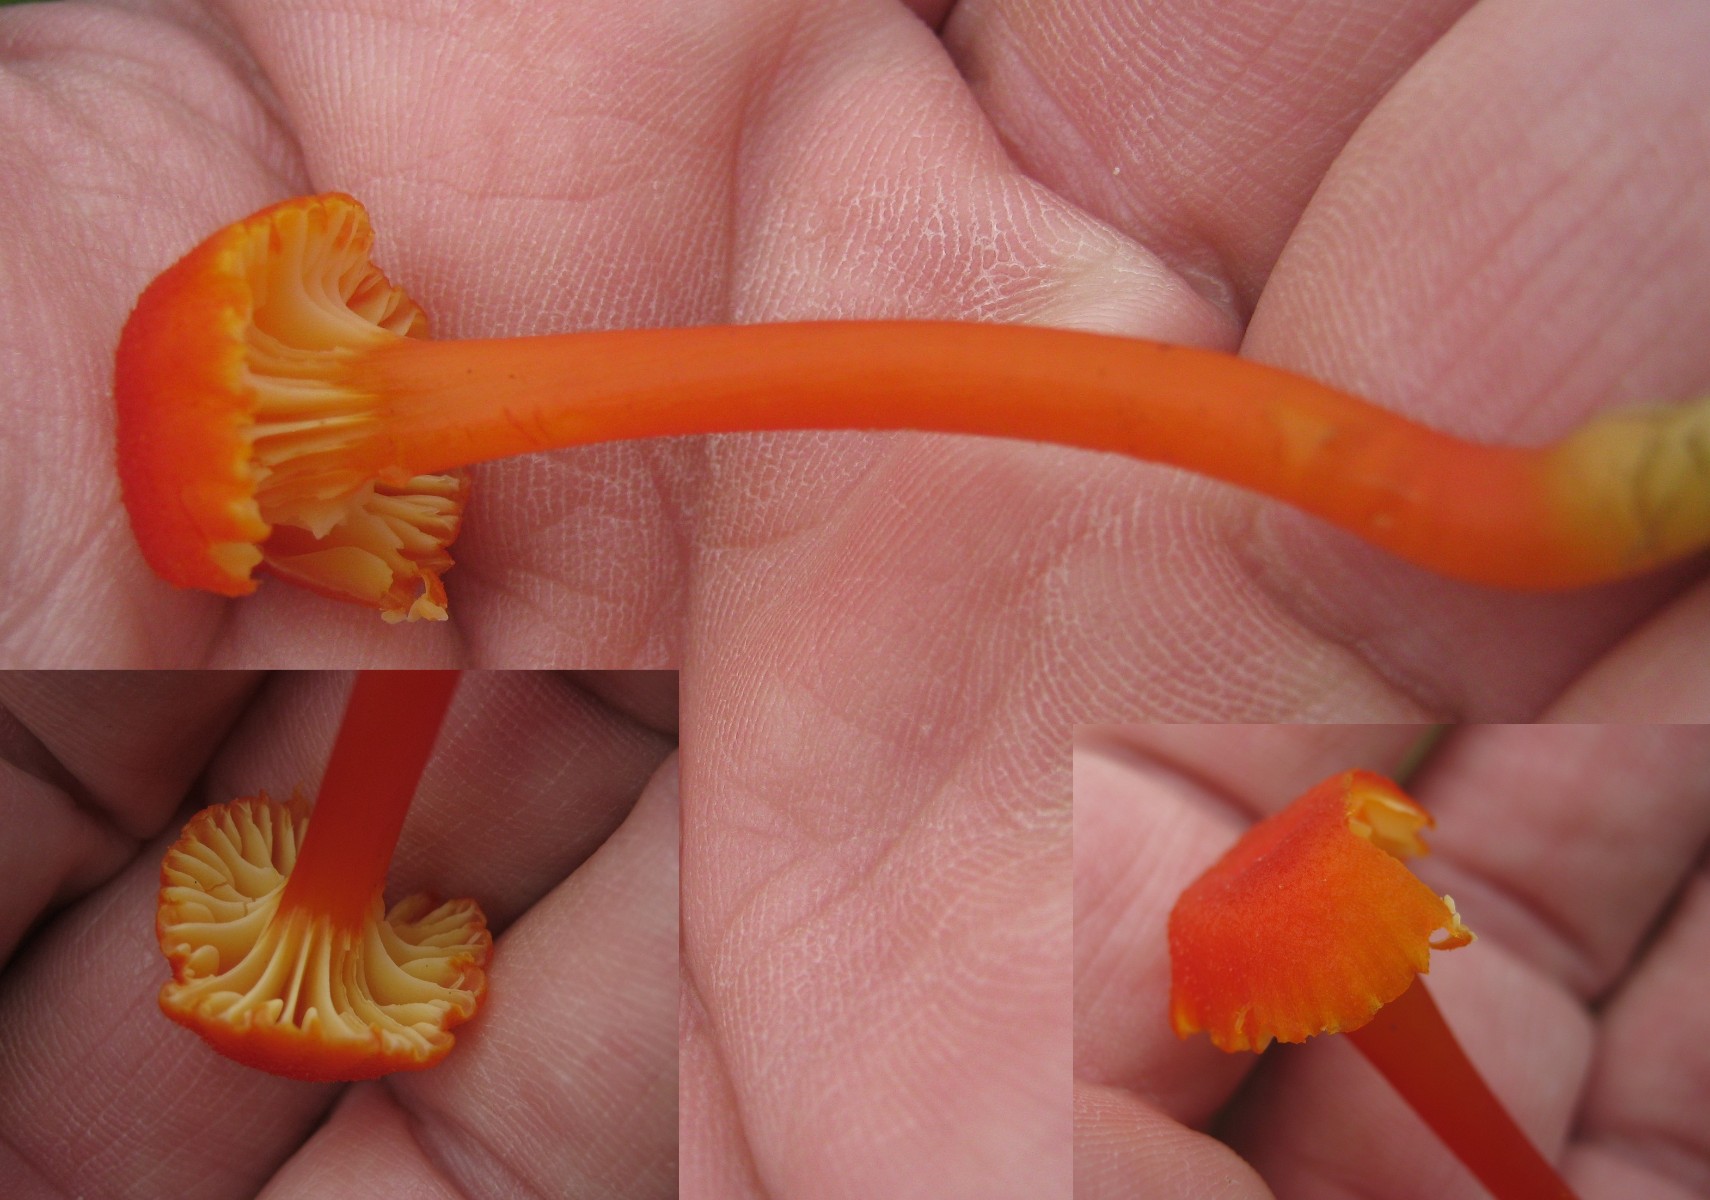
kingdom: Fungi
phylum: Basidiomycota
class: Agaricomycetes
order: Agaricales
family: Hygrophoraceae
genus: Hygrocybe
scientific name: Hygrocybe cantharellus
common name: kantarel-vokshat
